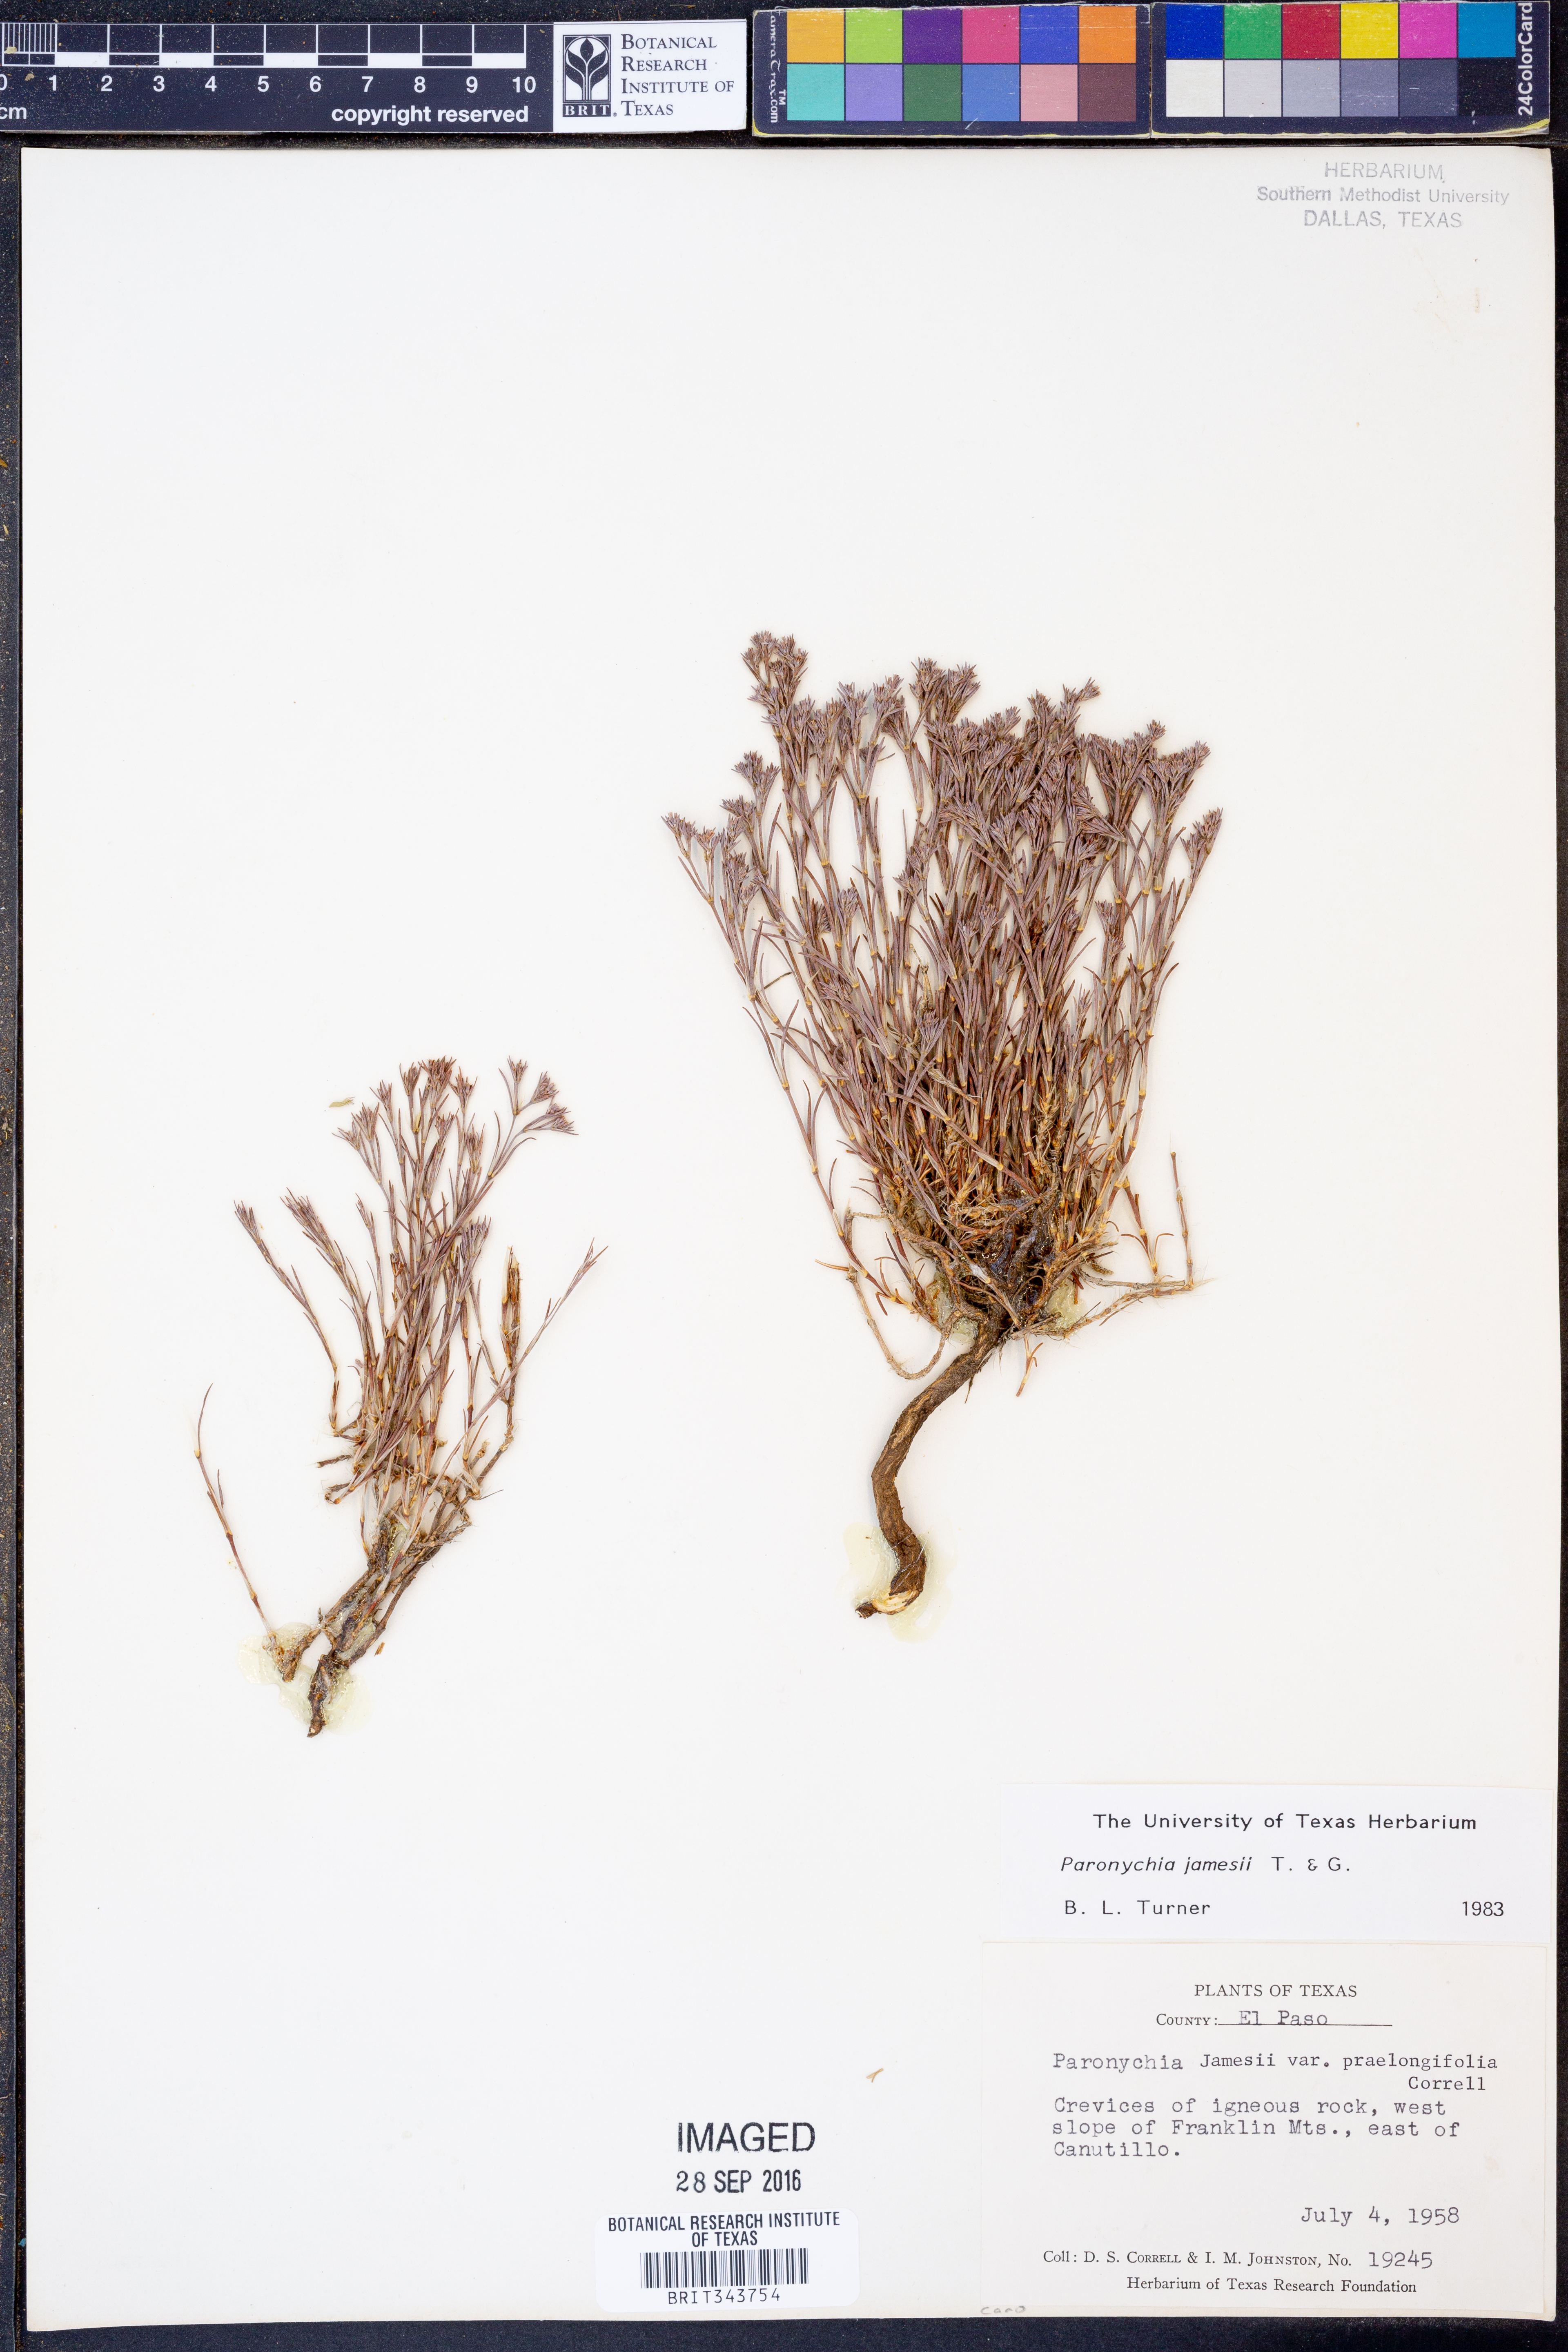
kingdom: Plantae
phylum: Tracheophyta
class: Magnoliopsida
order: Caryophyllales
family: Caryophyllaceae
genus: Paronychia
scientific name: Paronychia jamesii
